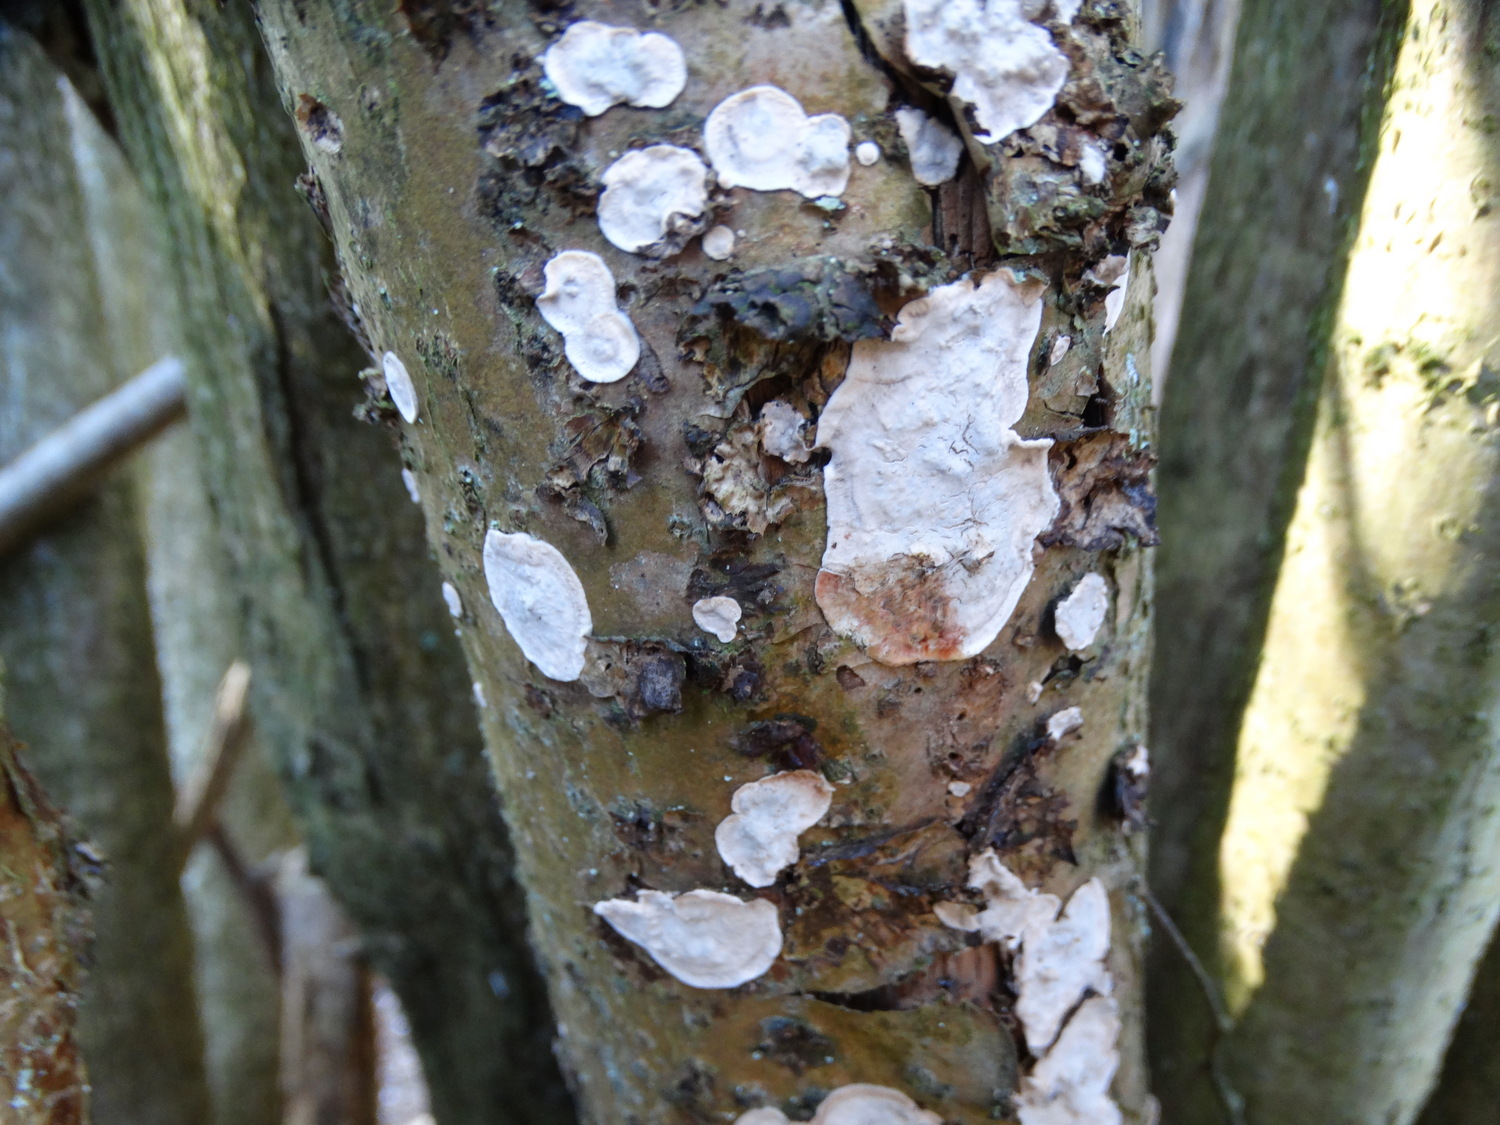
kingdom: Fungi
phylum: Basidiomycota
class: Agaricomycetes
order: Russulales
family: Stereaceae
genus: Stereum
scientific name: Stereum rugosum
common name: rynket lædersvamp
